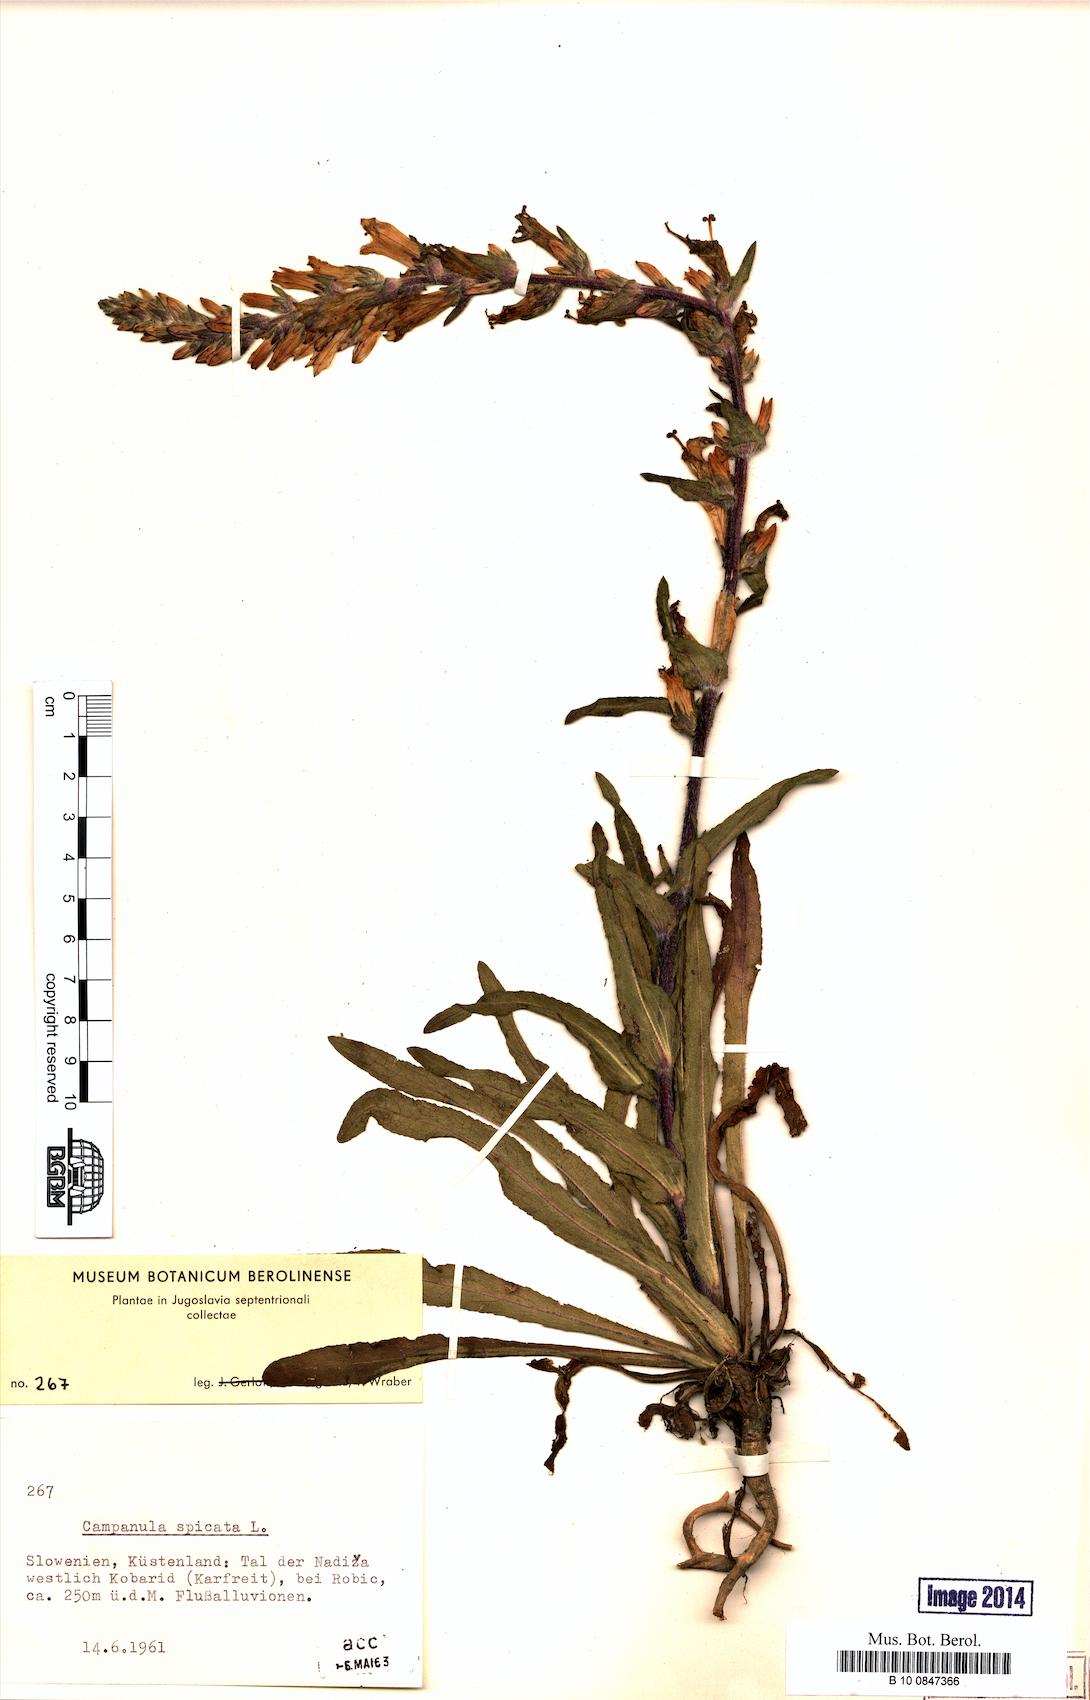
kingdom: Plantae
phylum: Tracheophyta
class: Magnoliopsida
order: Asterales
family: Campanulaceae
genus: Campanula
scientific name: Campanula spicata
